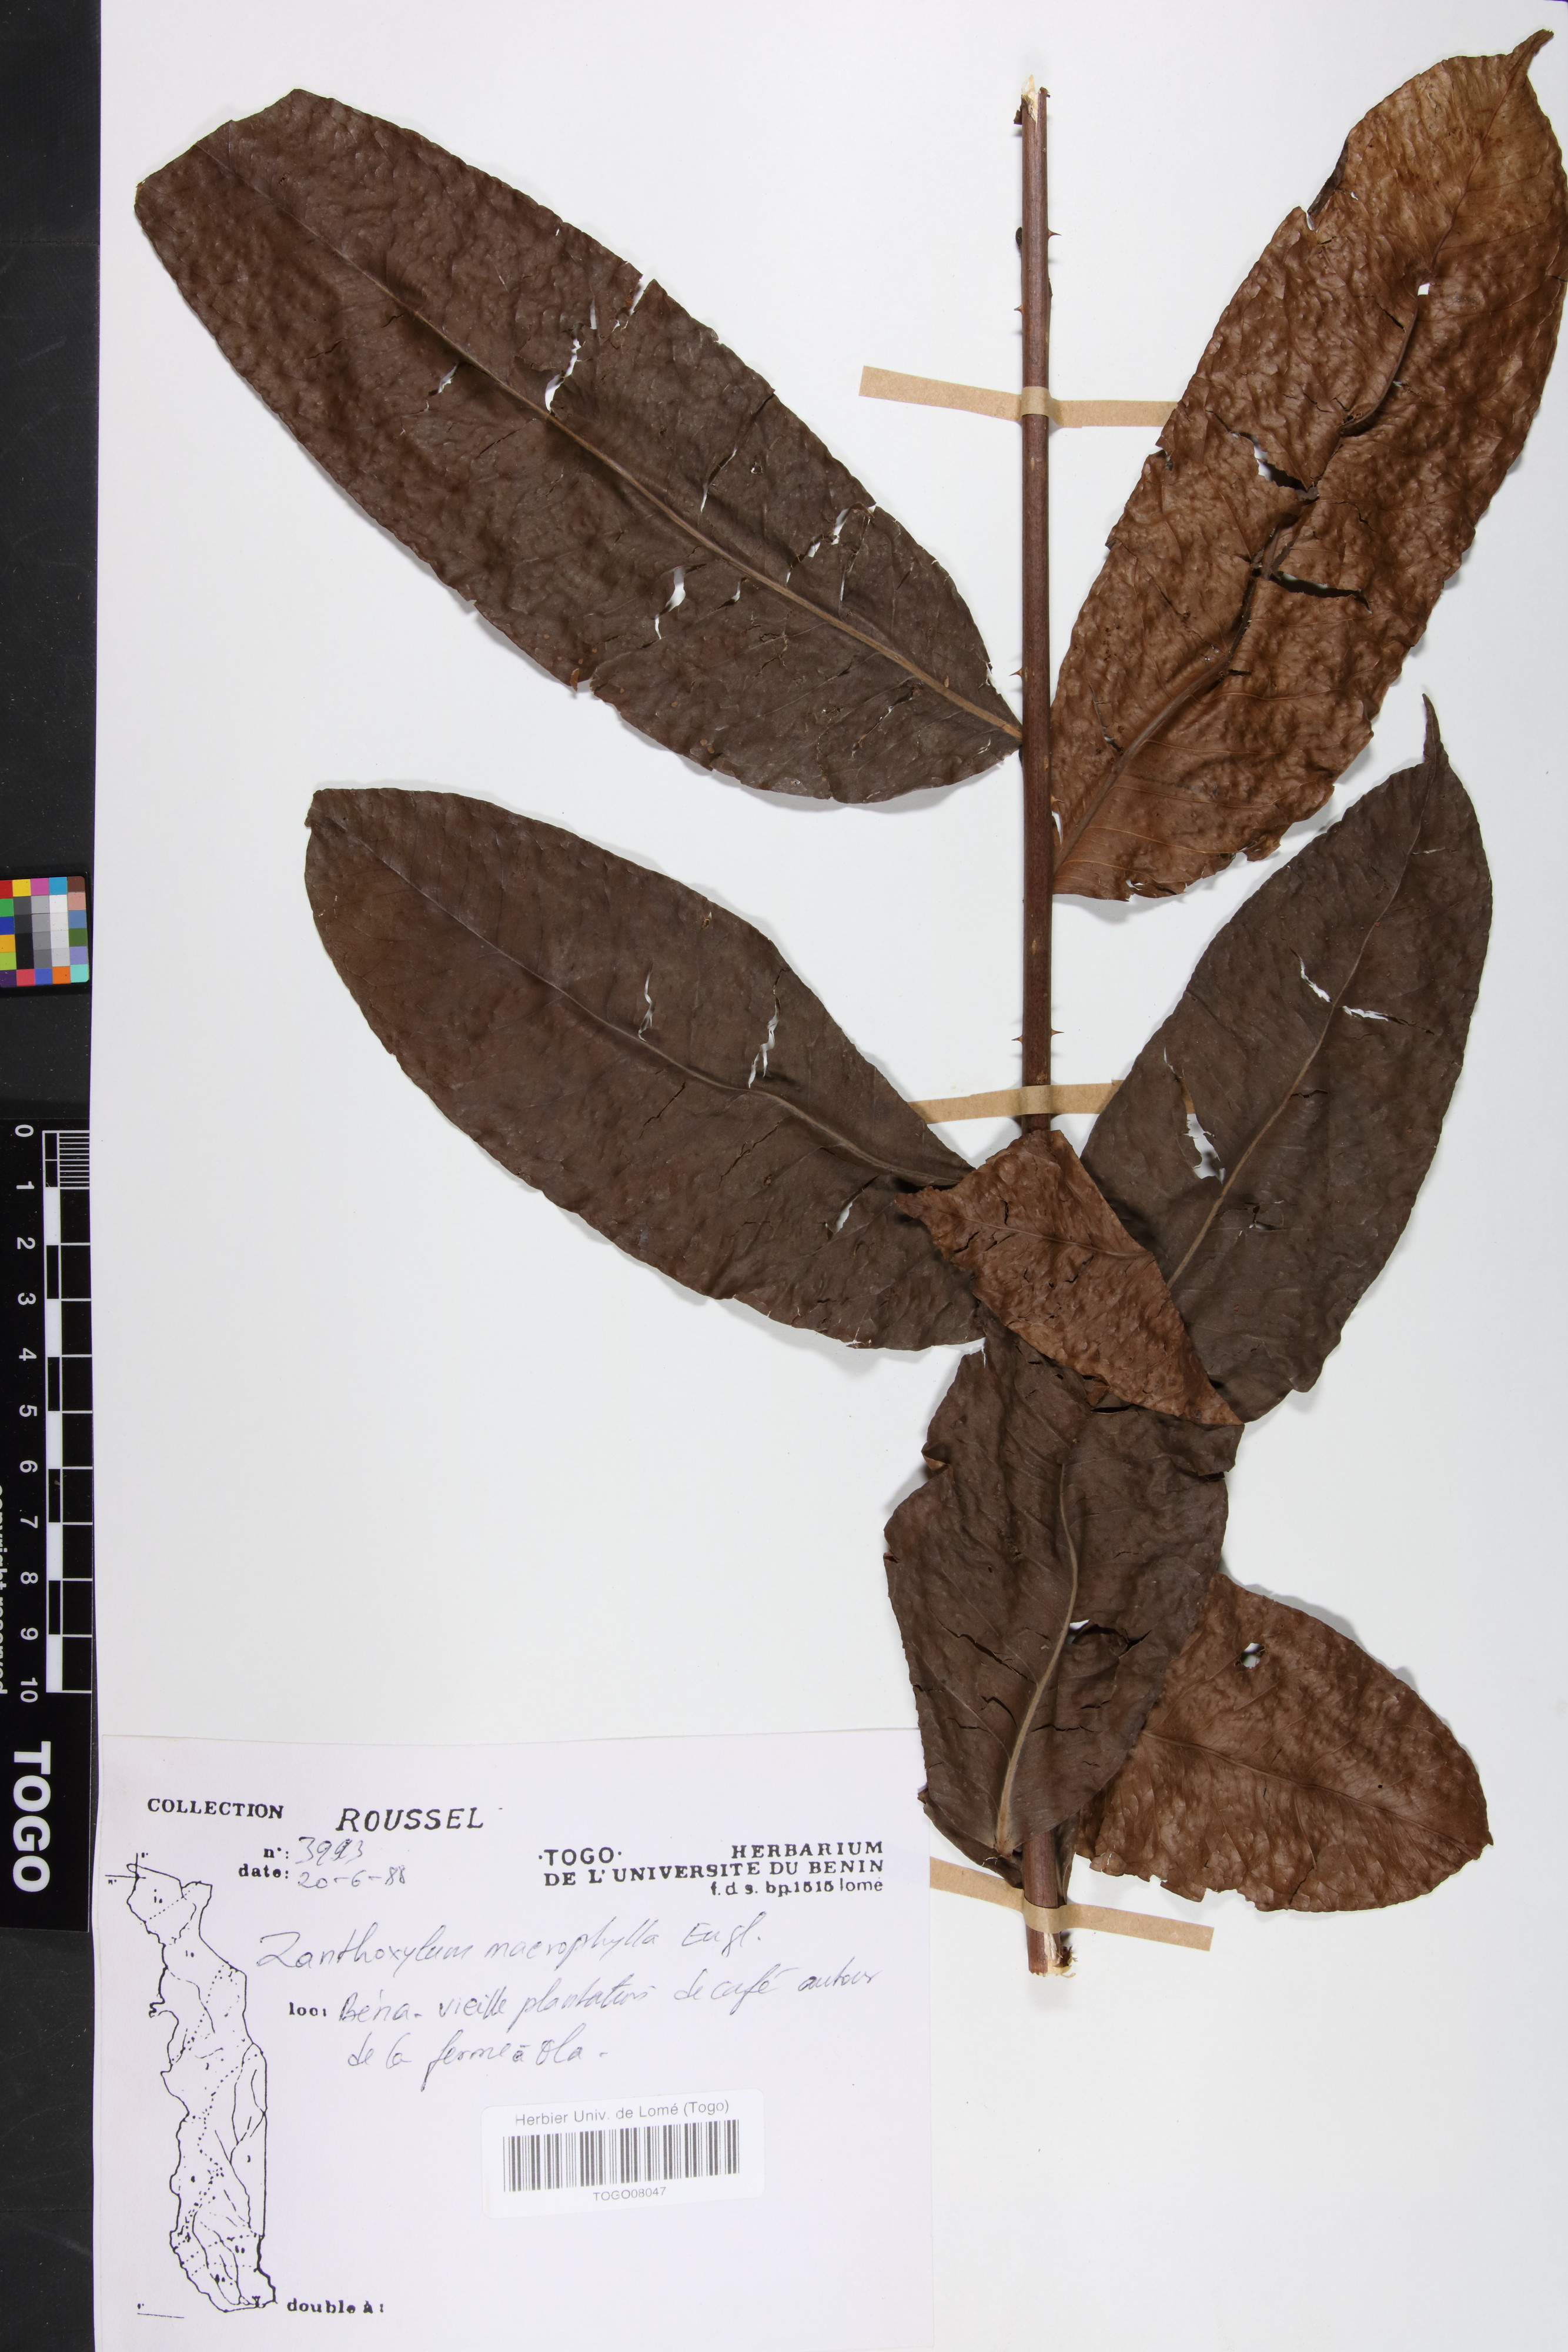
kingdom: Plantae
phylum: Tracheophyta
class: Magnoliopsida
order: Sapindales
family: Rutaceae
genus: Zanthoxylum
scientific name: Zanthoxylum
